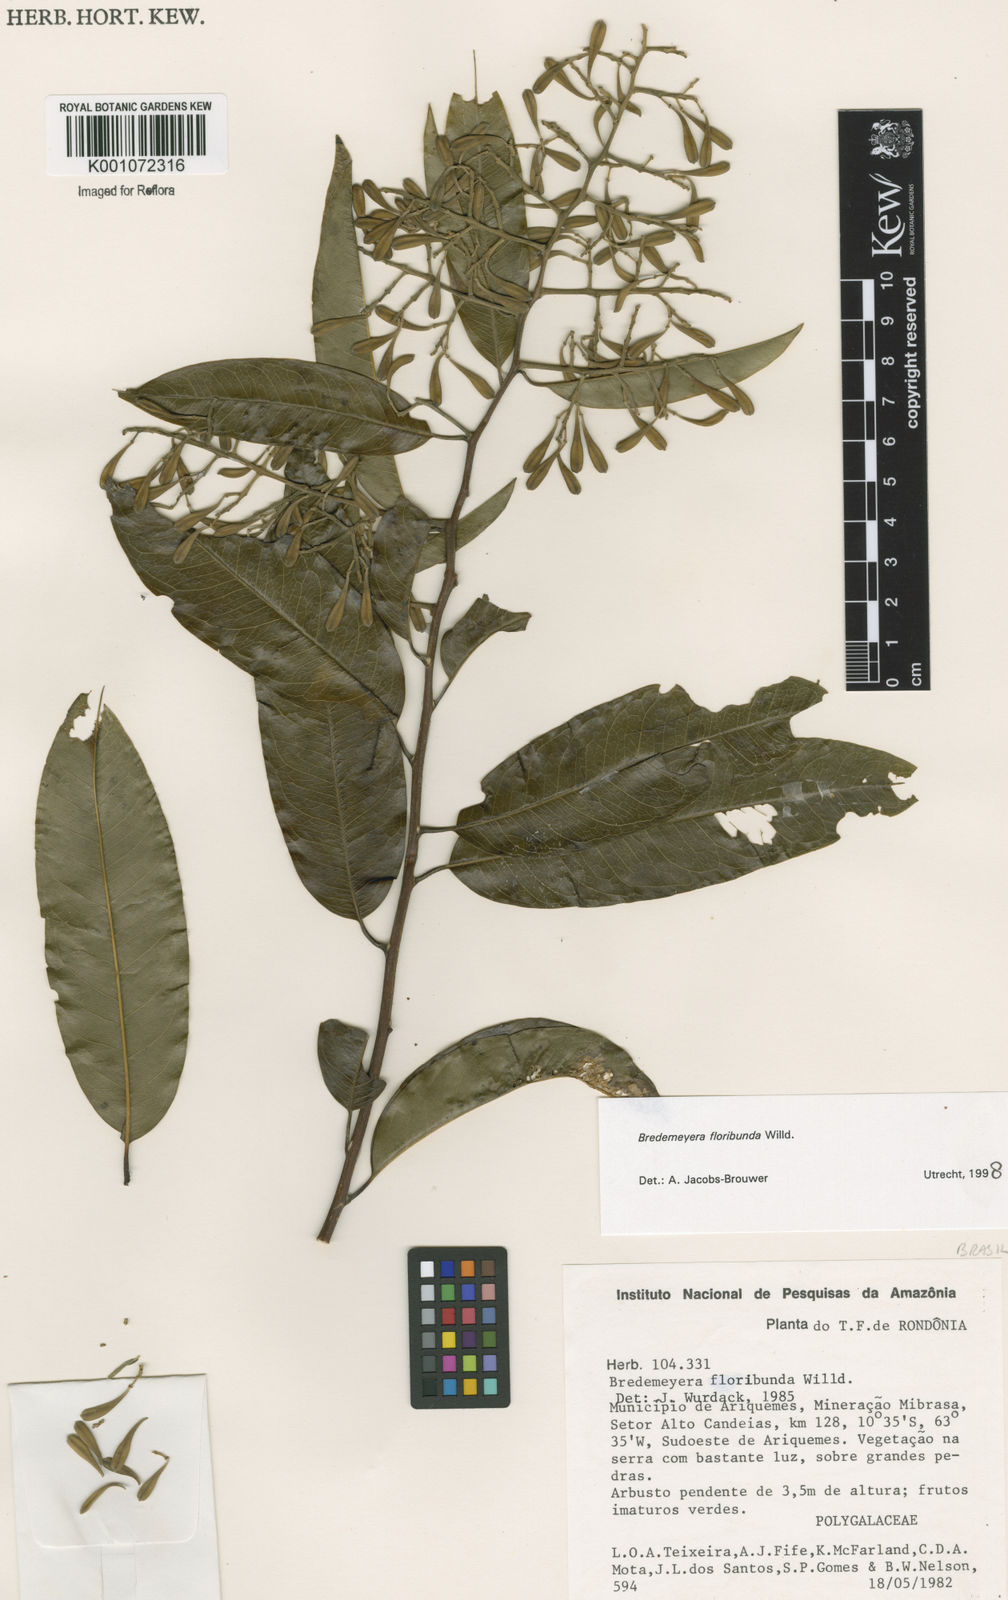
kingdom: Plantae
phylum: Tracheophyta
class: Magnoliopsida
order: Fabales
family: Polygalaceae
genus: Bredemeyera
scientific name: Bredemeyera floribunda
